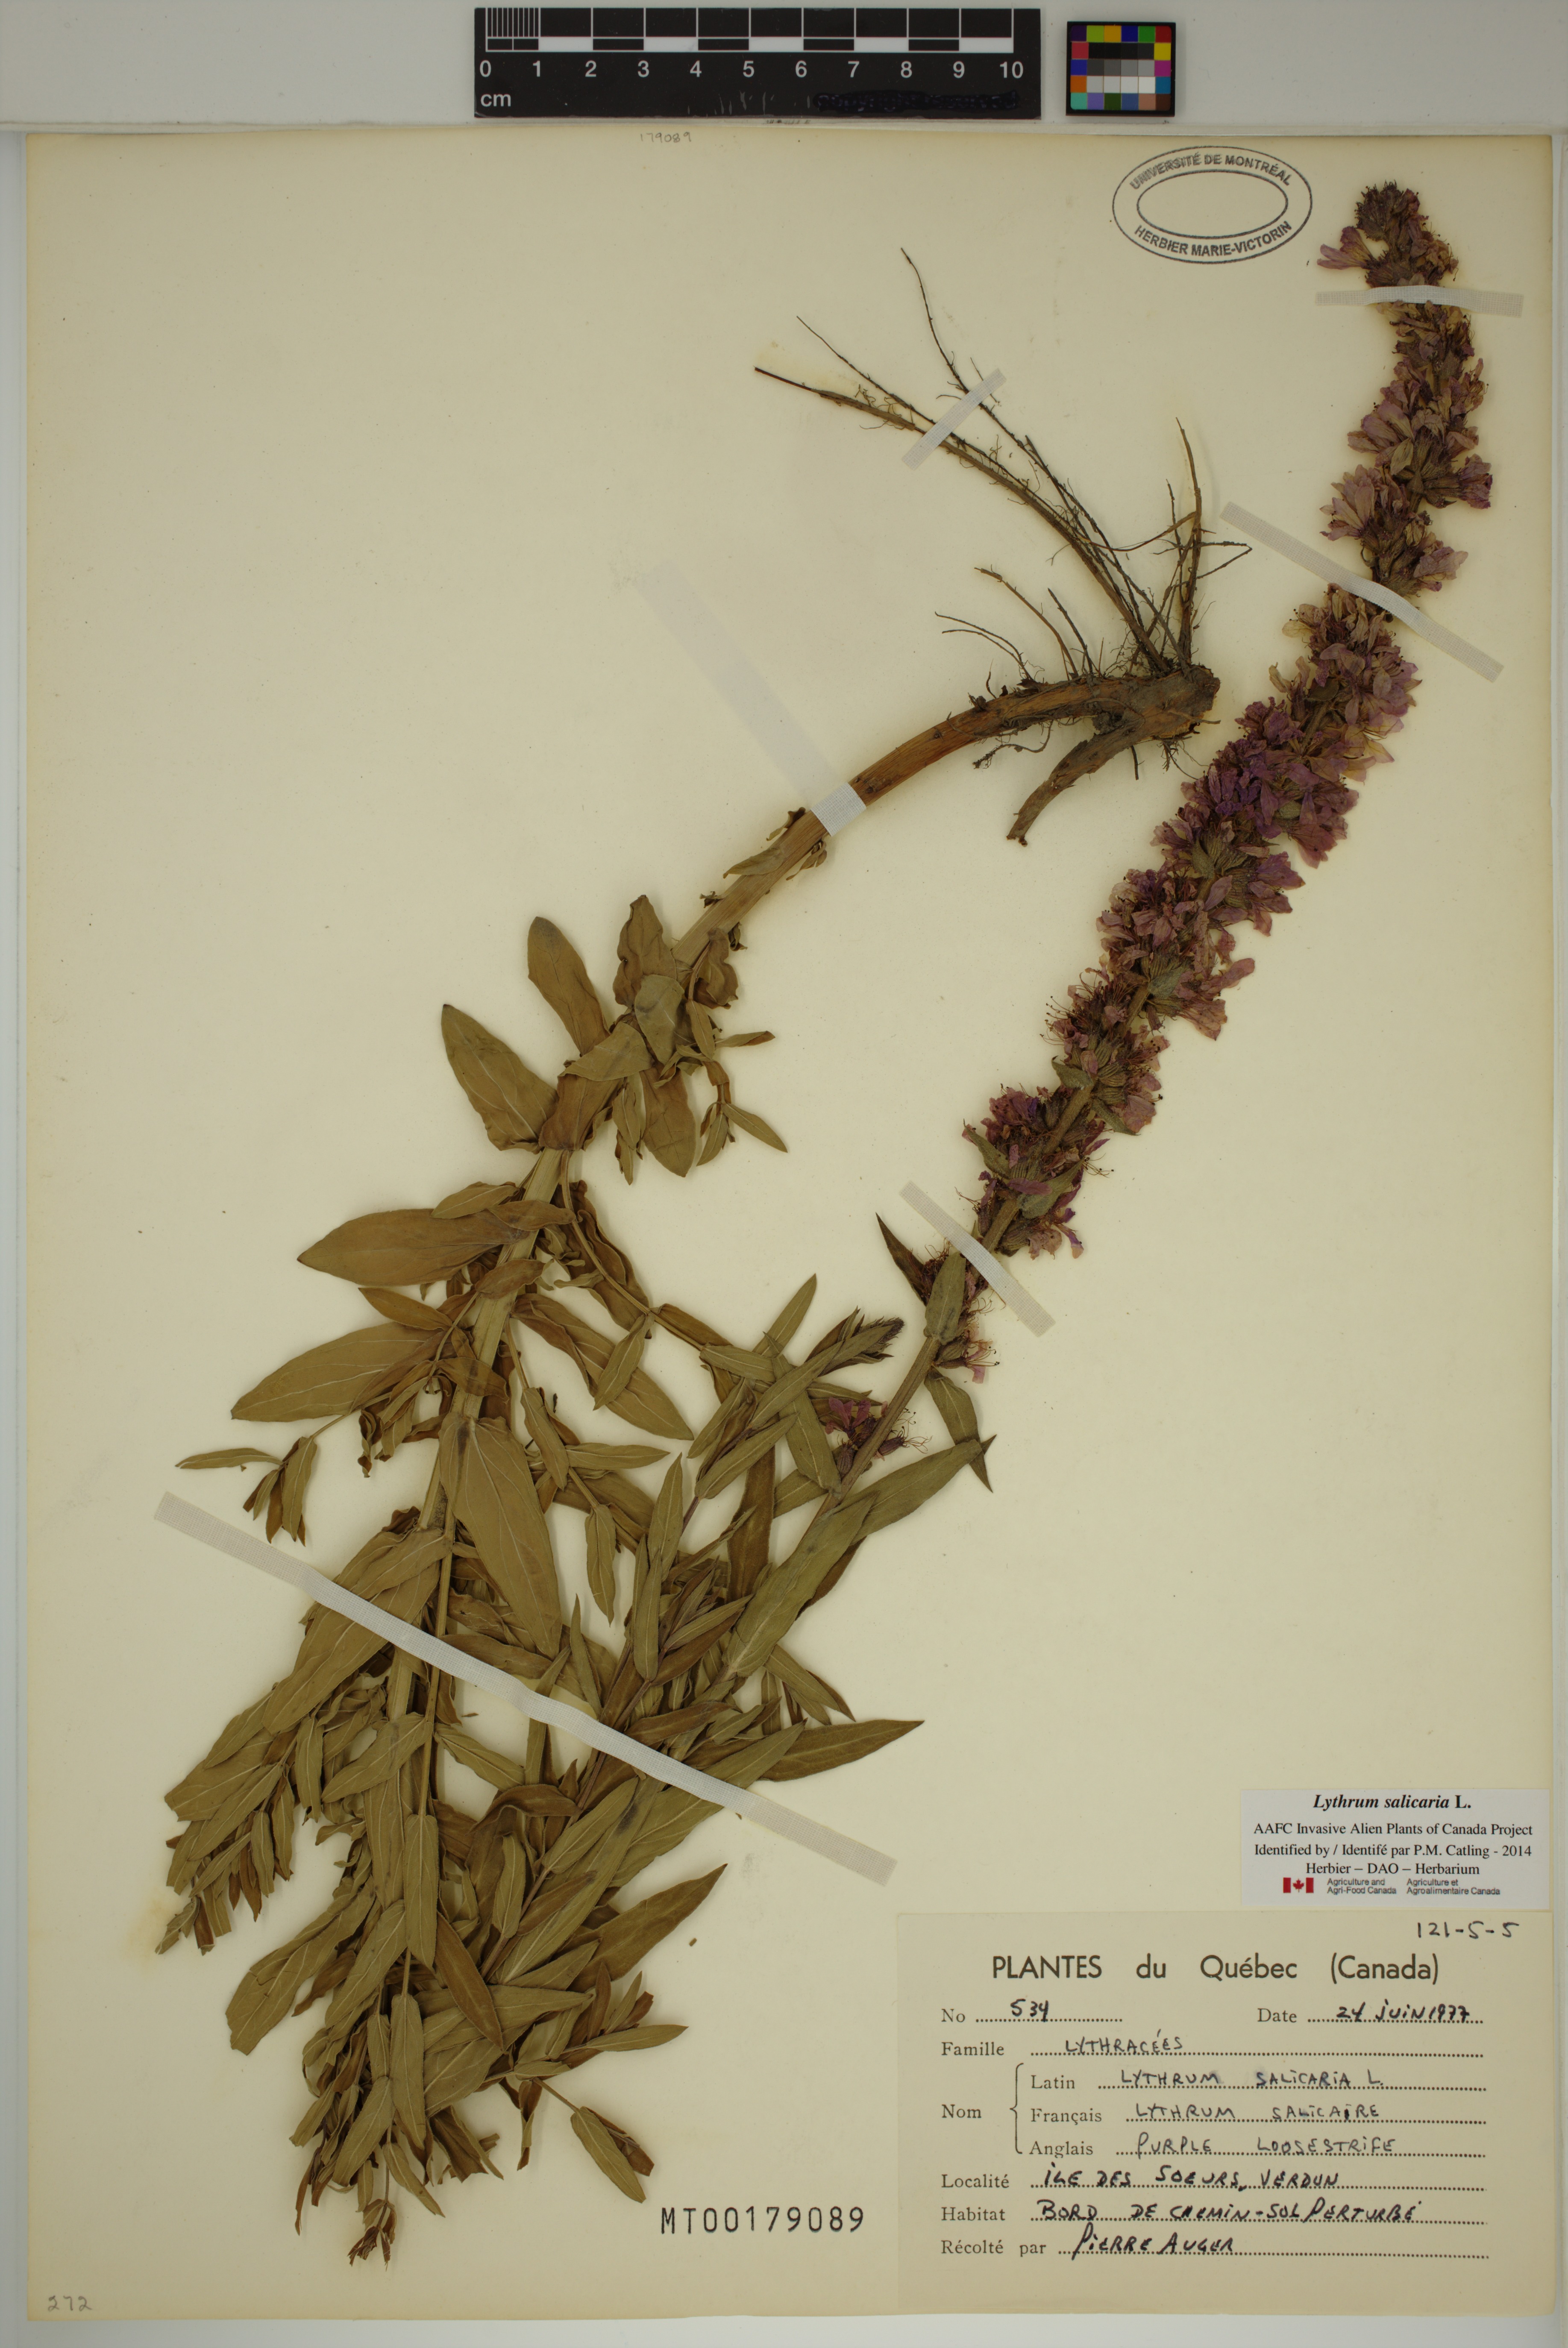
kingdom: Plantae
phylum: Tracheophyta
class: Magnoliopsida
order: Myrtales
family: Lythraceae
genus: Lythrum
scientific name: Lythrum salicaria
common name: Purple loosestrife
